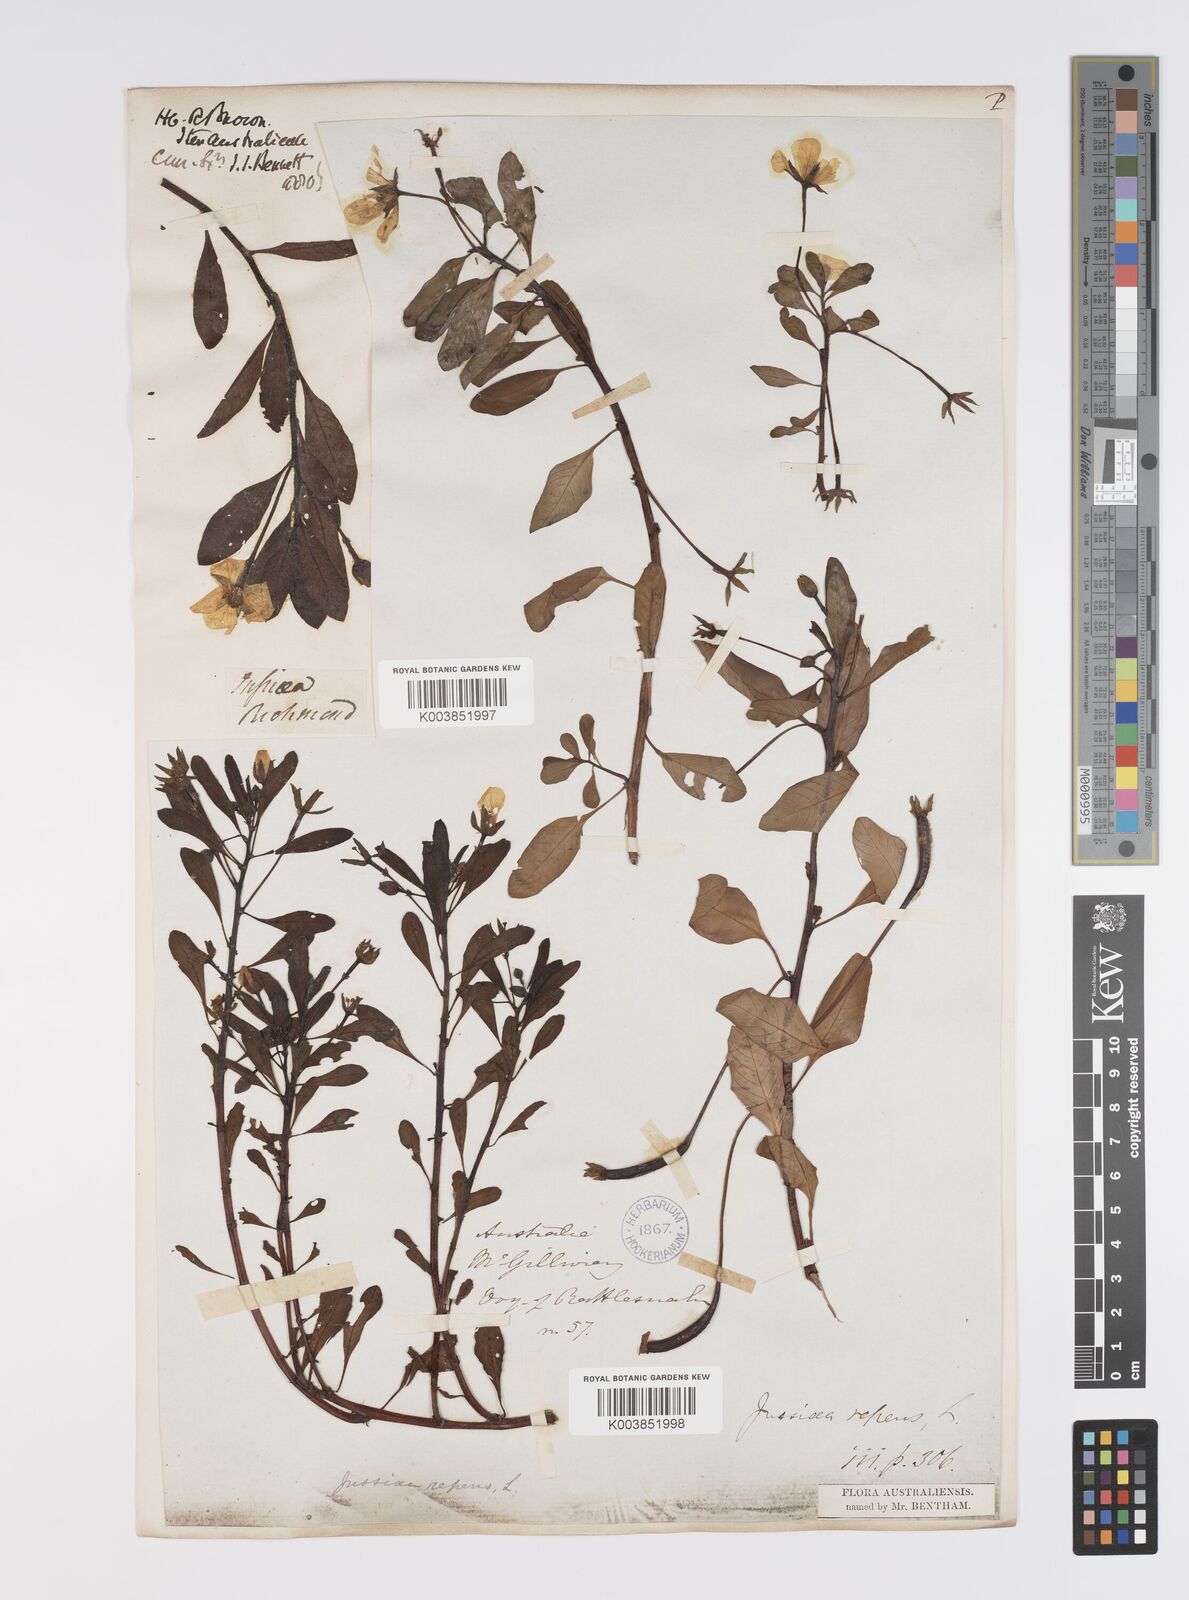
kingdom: Plantae
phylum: Tracheophyta
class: Magnoliopsida
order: Myrtales
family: Onagraceae
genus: Ludwigia
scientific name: Ludwigia peploides
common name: Floating primrose-willow
